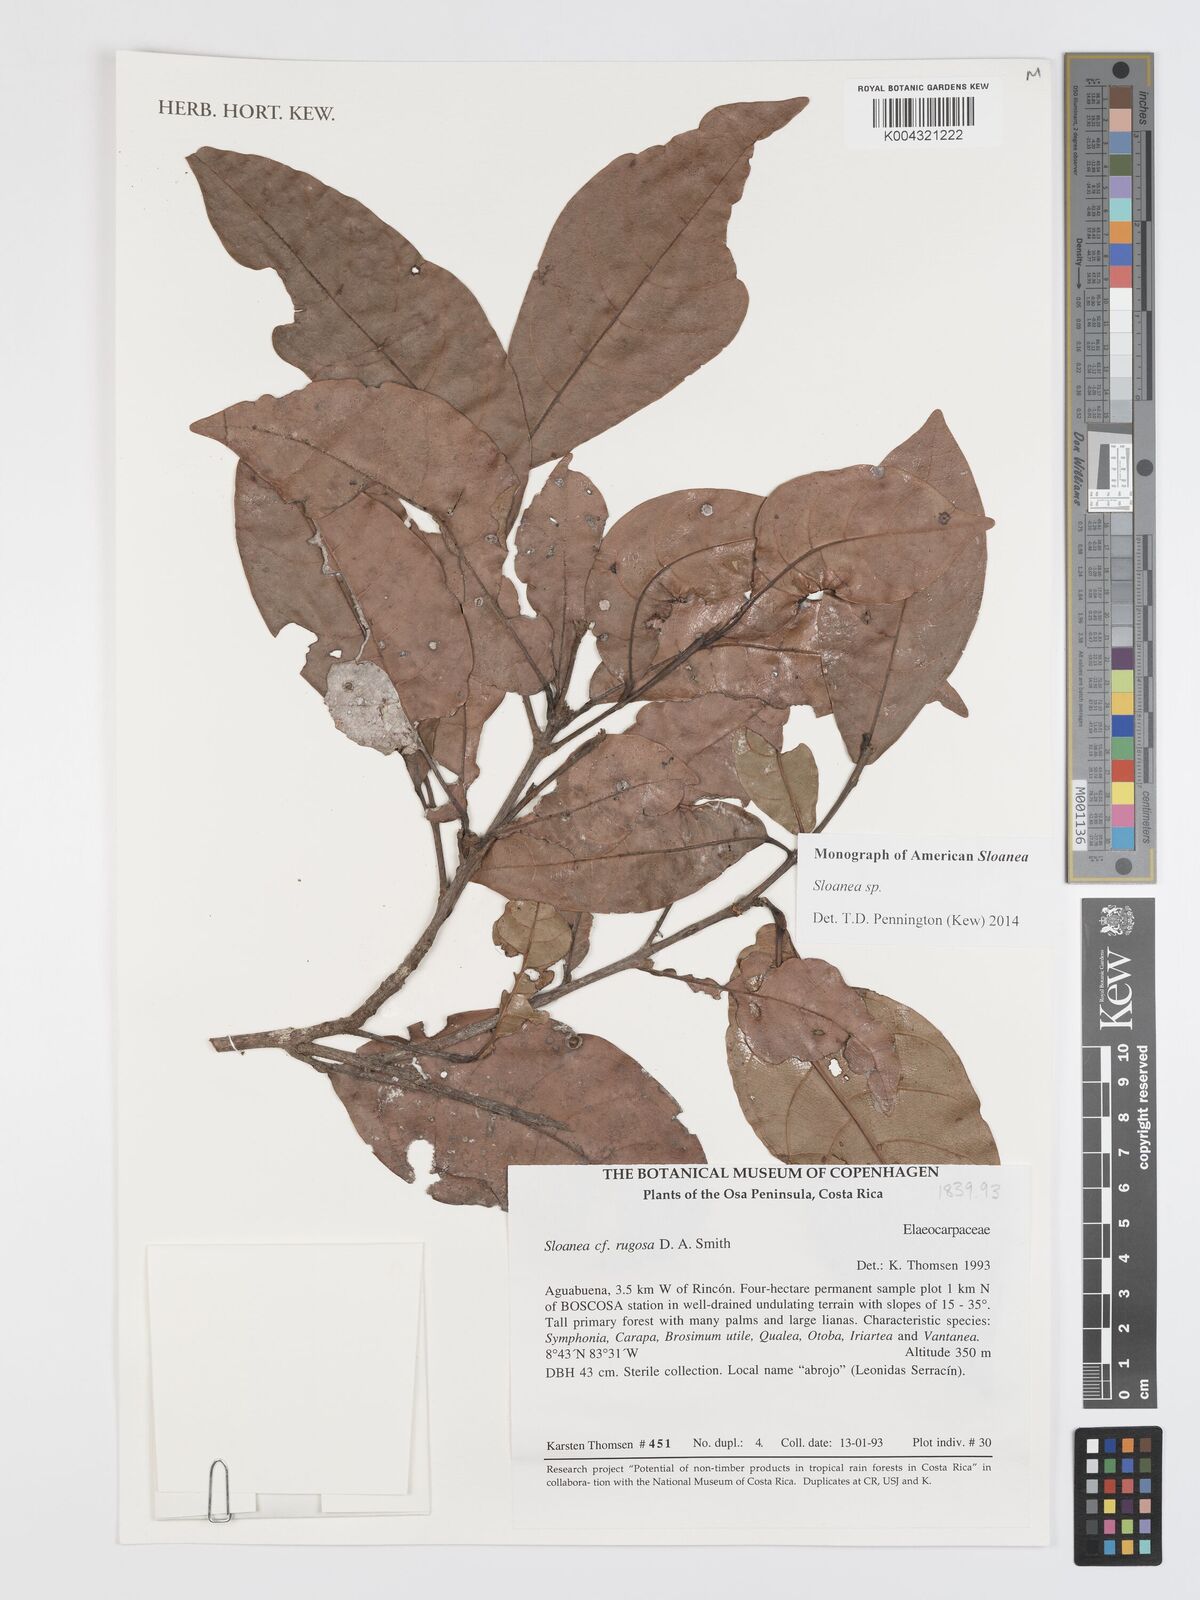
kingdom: Plantae
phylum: Tracheophyta
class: Magnoliopsida
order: Oxalidales
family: Elaeocarpaceae
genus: Sloanea
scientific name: Sloanea
